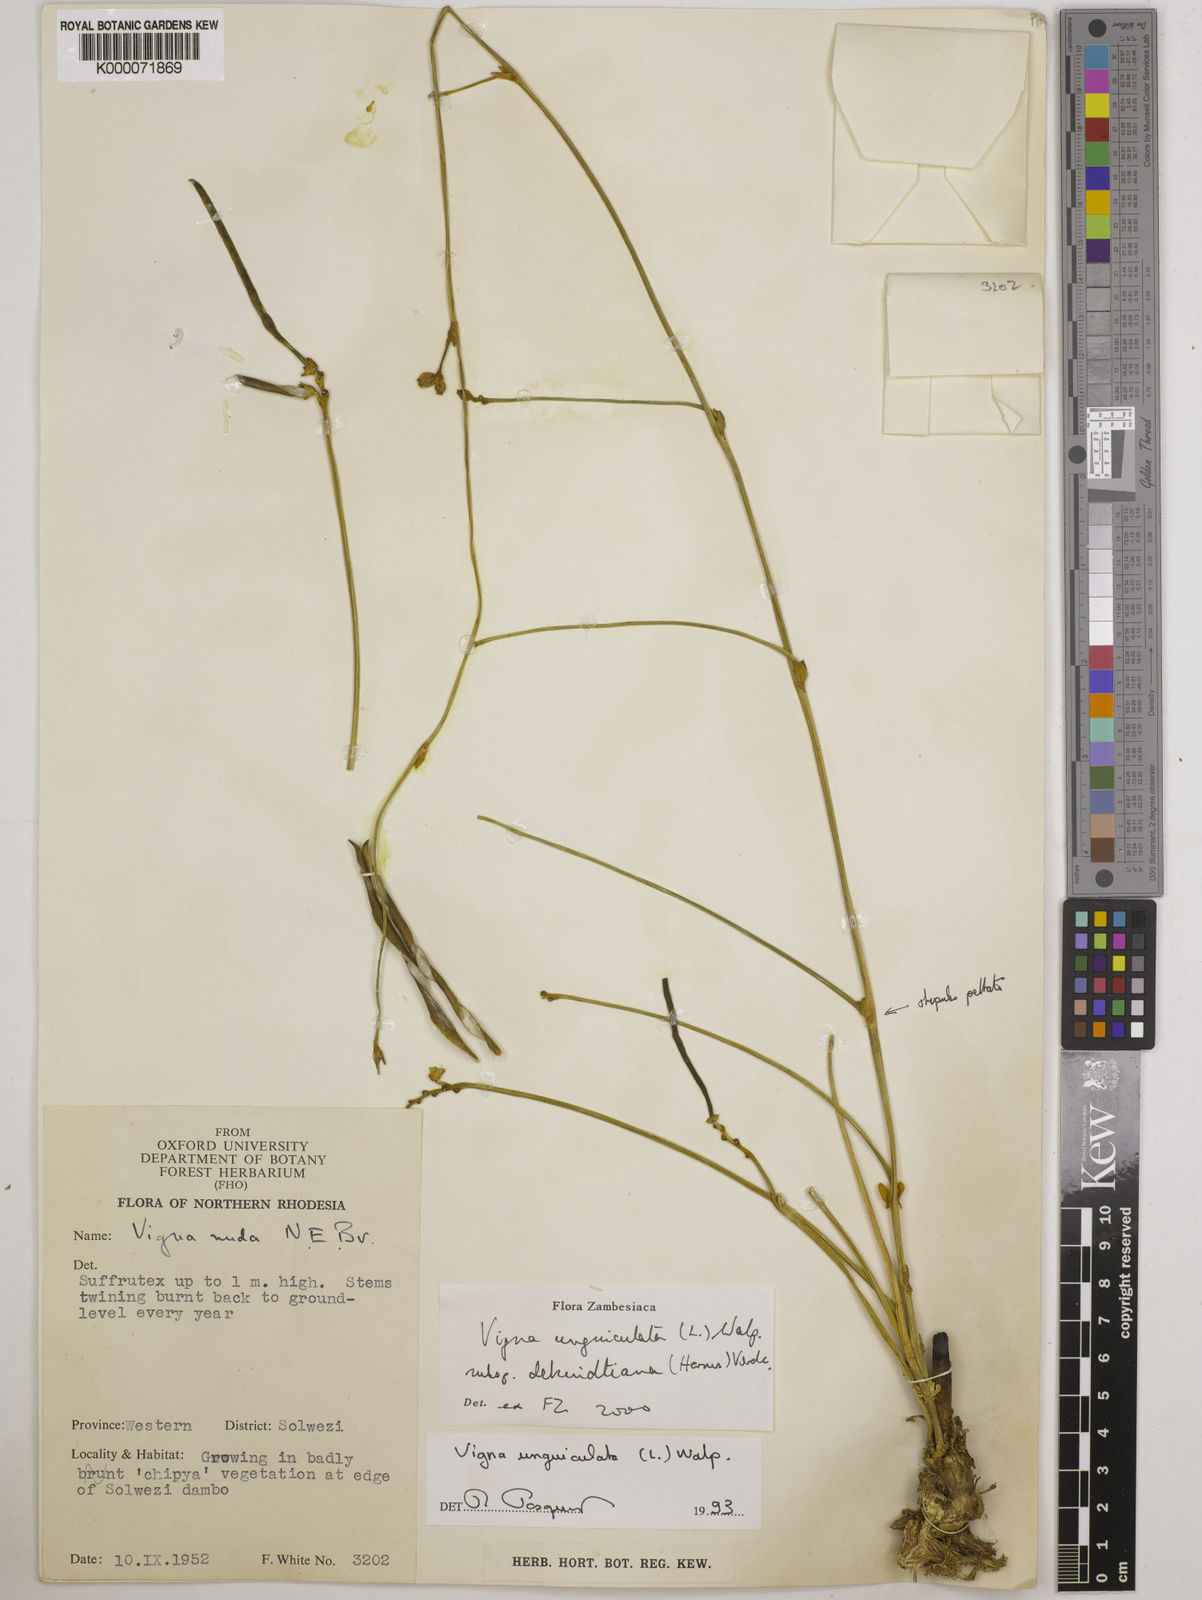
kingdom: Plantae
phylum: Tracheophyta
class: Magnoliopsida
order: Fabales
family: Fabaceae
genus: Vigna
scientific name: Vigna unguiculata
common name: Cowpea
